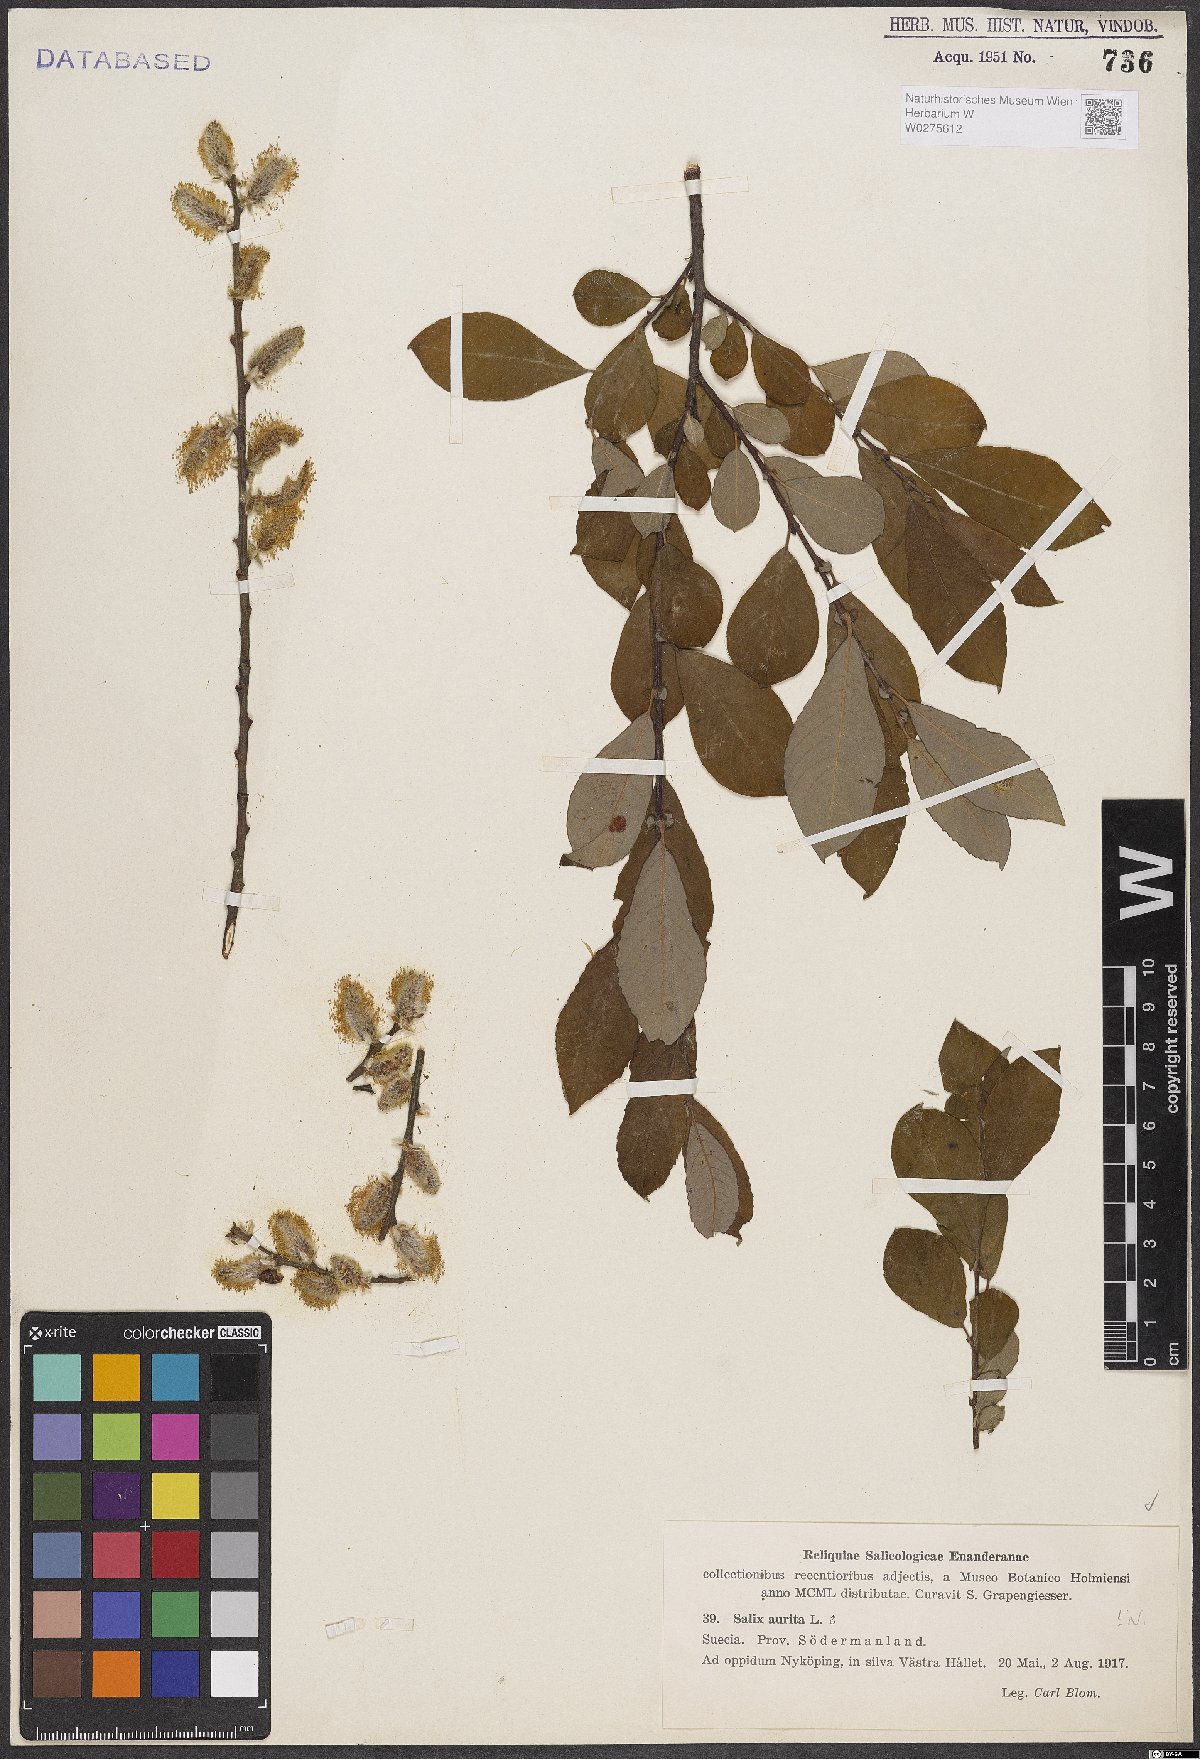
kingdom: Plantae
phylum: Tracheophyta
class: Magnoliopsida
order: Malpighiales
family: Salicaceae
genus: Salix
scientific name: Salix aurita
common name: Eared willow
